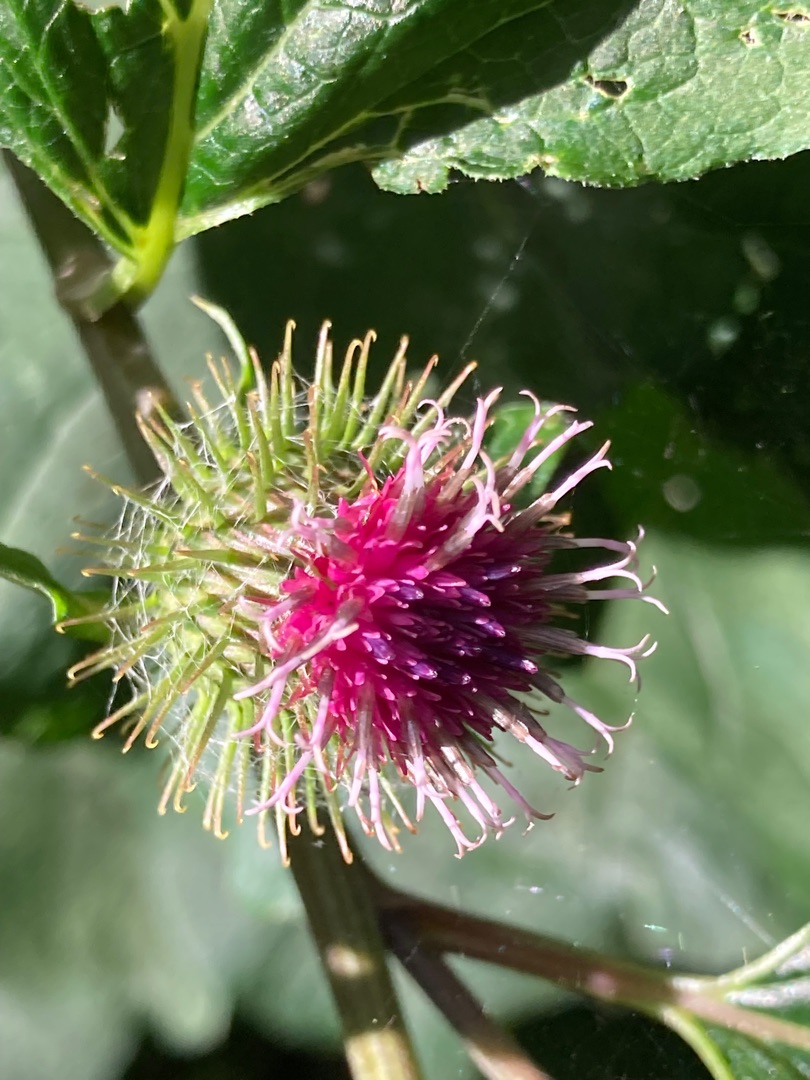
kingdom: Plantae
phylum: Tracheophyta
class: Magnoliopsida
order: Asterales
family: Asteraceae
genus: Arctium
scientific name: Arctium nemorosum
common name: Skov-burre
